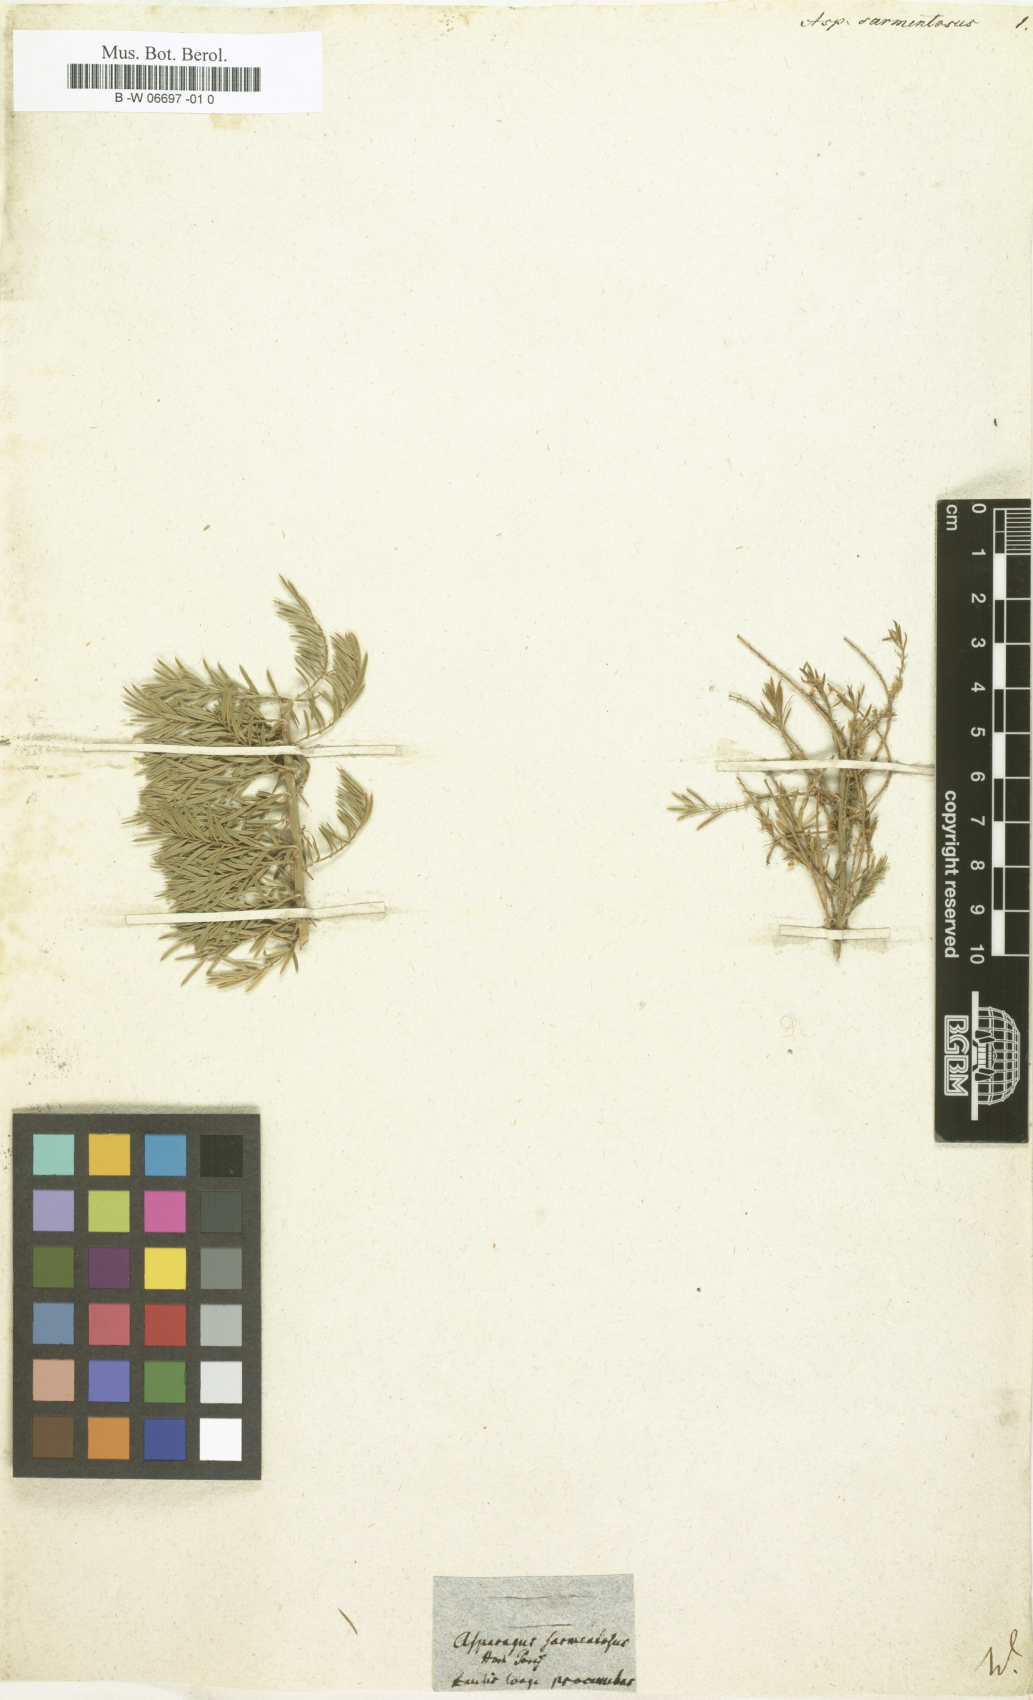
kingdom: Plantae
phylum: Tracheophyta
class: Liliopsida
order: Asparagales
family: Asparagaceae
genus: Asparagus
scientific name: Asparagus sarmentosus
